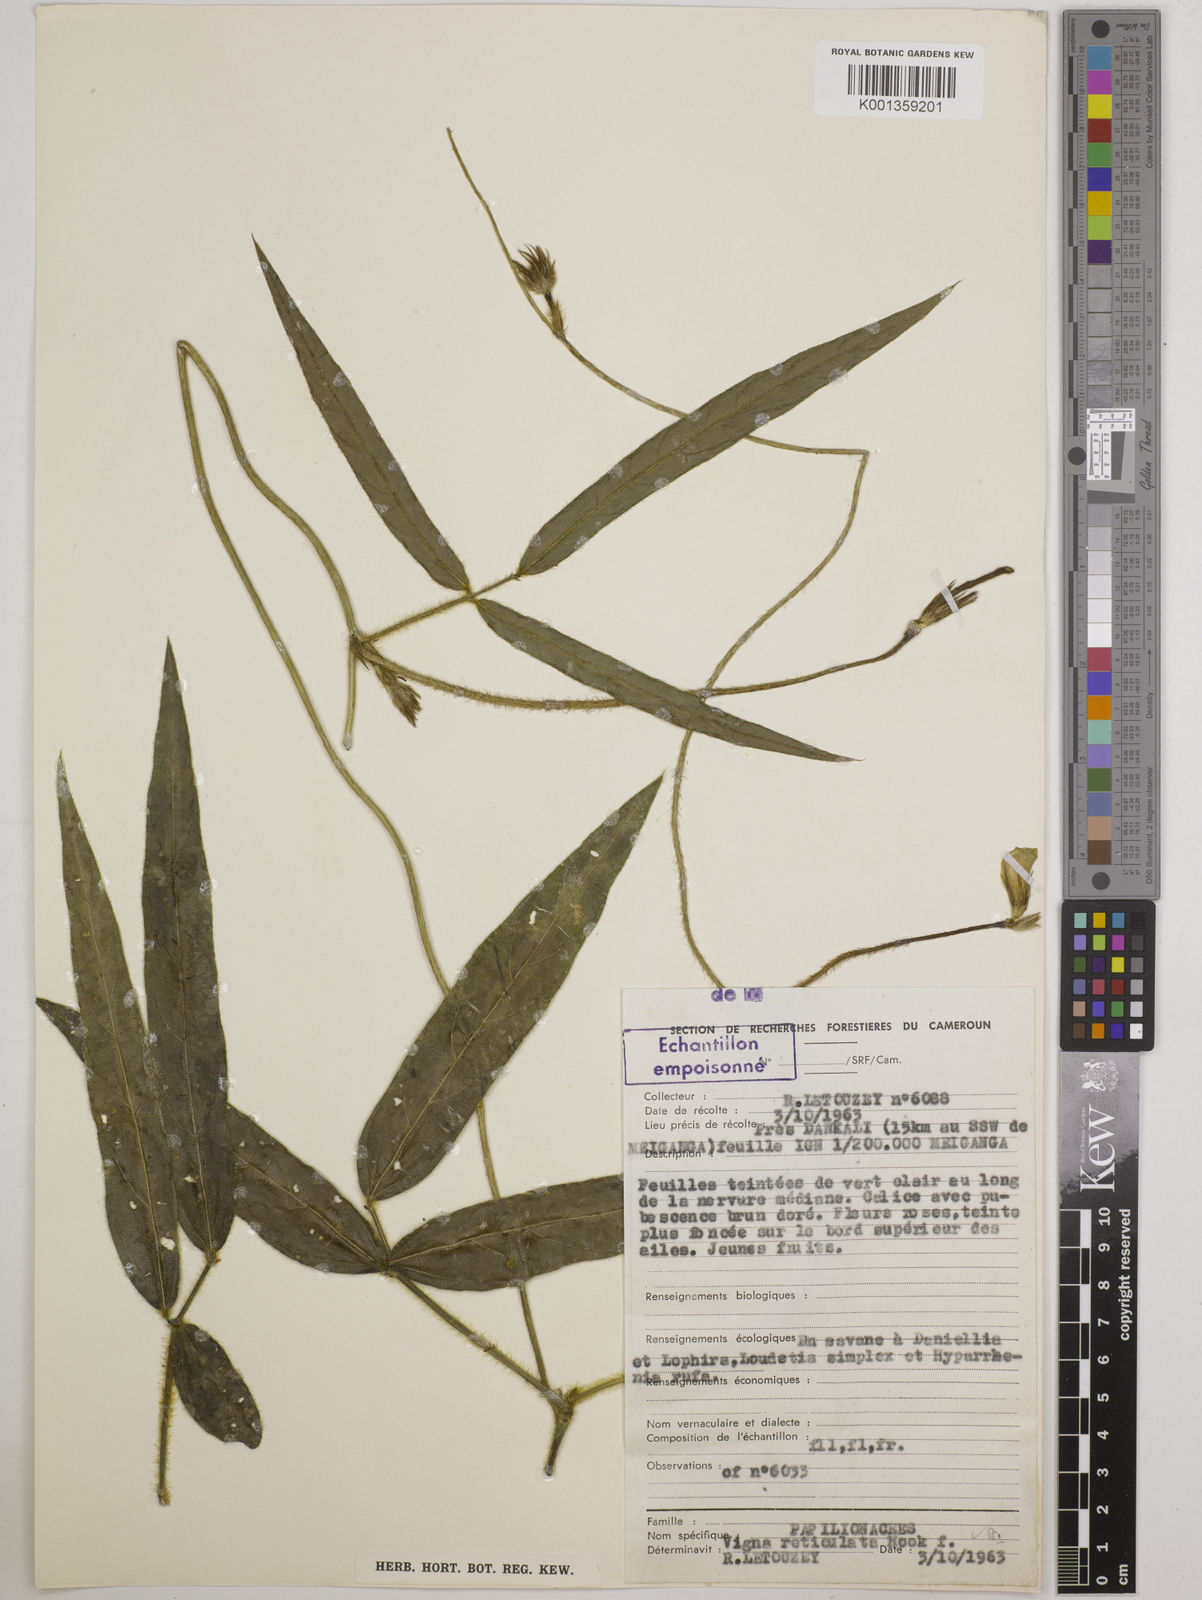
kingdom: Plantae
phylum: Tracheophyta
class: Magnoliopsida
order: Fabales
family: Fabaceae
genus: Vigna
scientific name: Vigna reticulata
